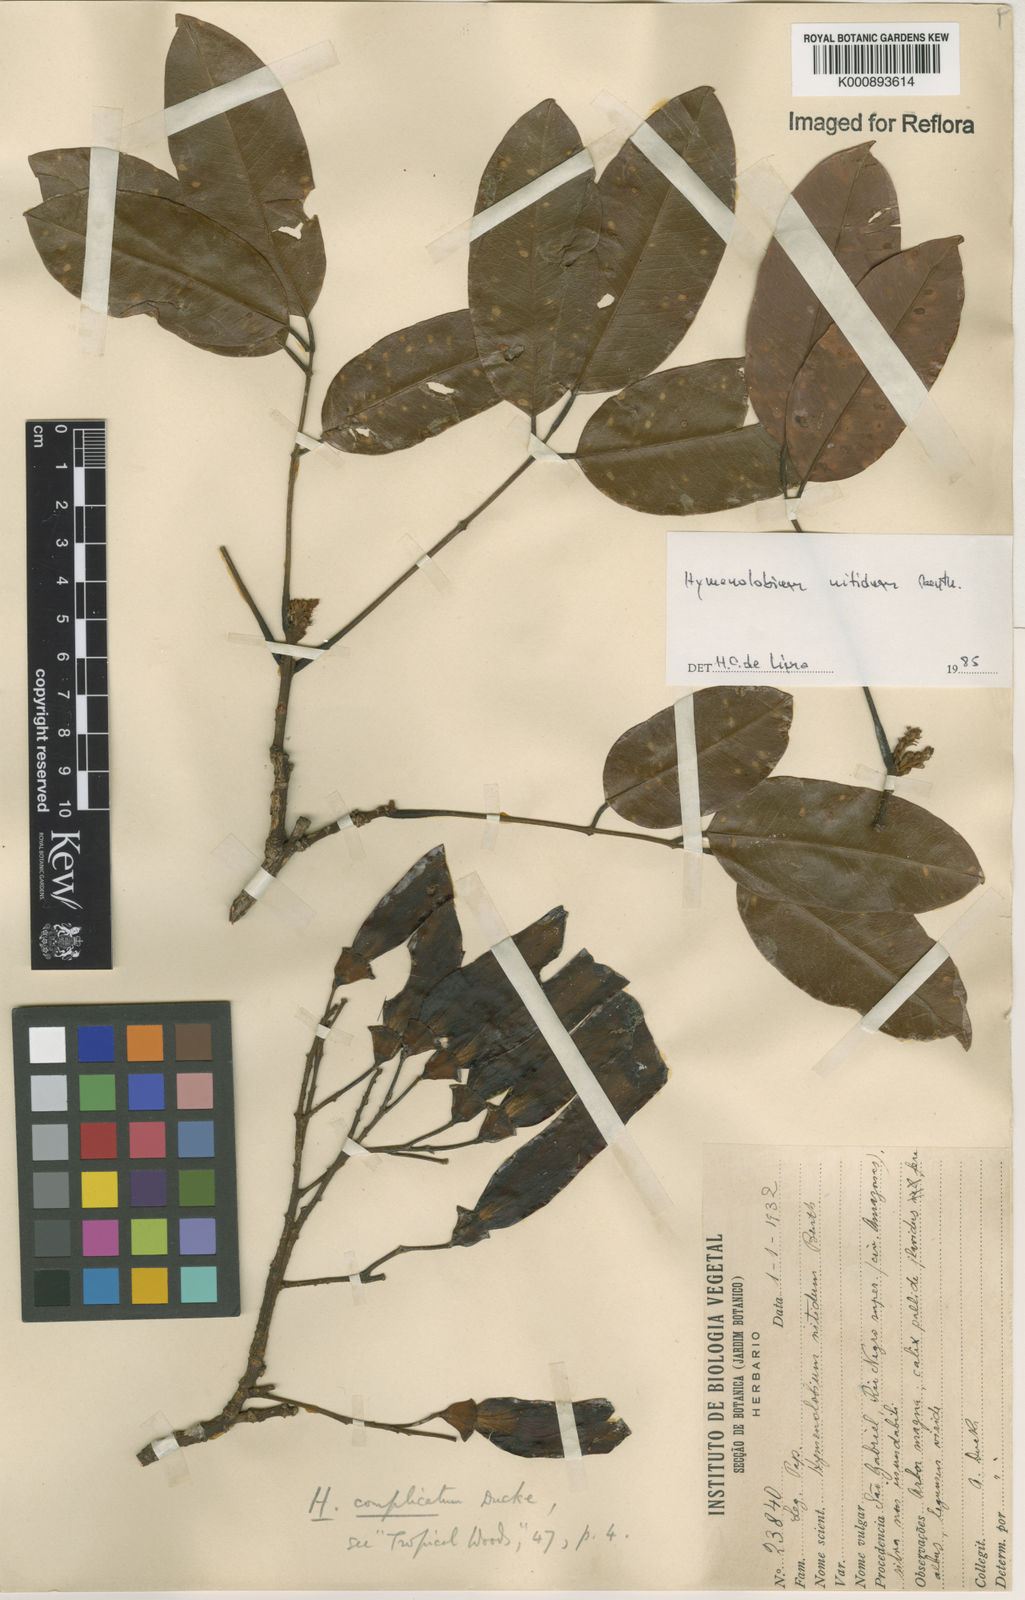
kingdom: Plantae
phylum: Tracheophyta
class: Magnoliopsida
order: Fabales
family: Fabaceae
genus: Hymenolobium
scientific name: Hymenolobium nitidum
